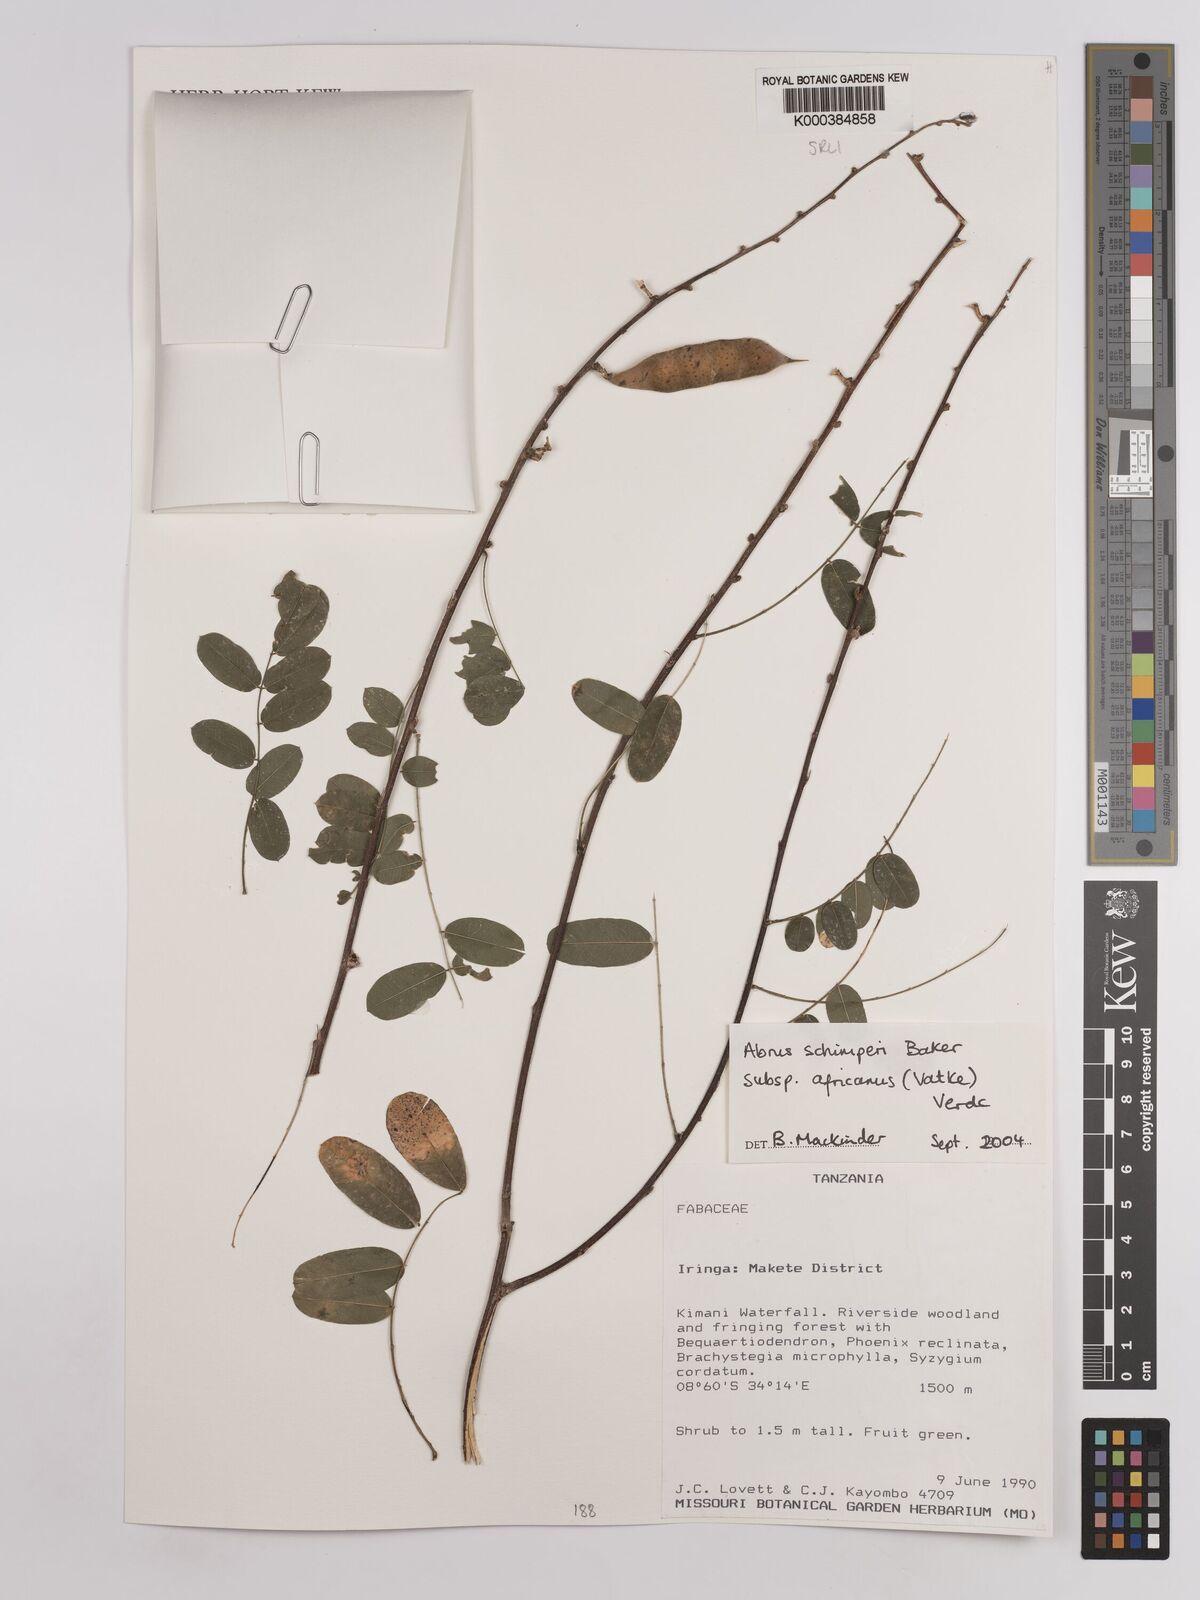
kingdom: Plantae
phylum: Tracheophyta
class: Magnoliopsida
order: Fabales
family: Fabaceae
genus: Abrus
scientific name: Abrus fruticulosus
